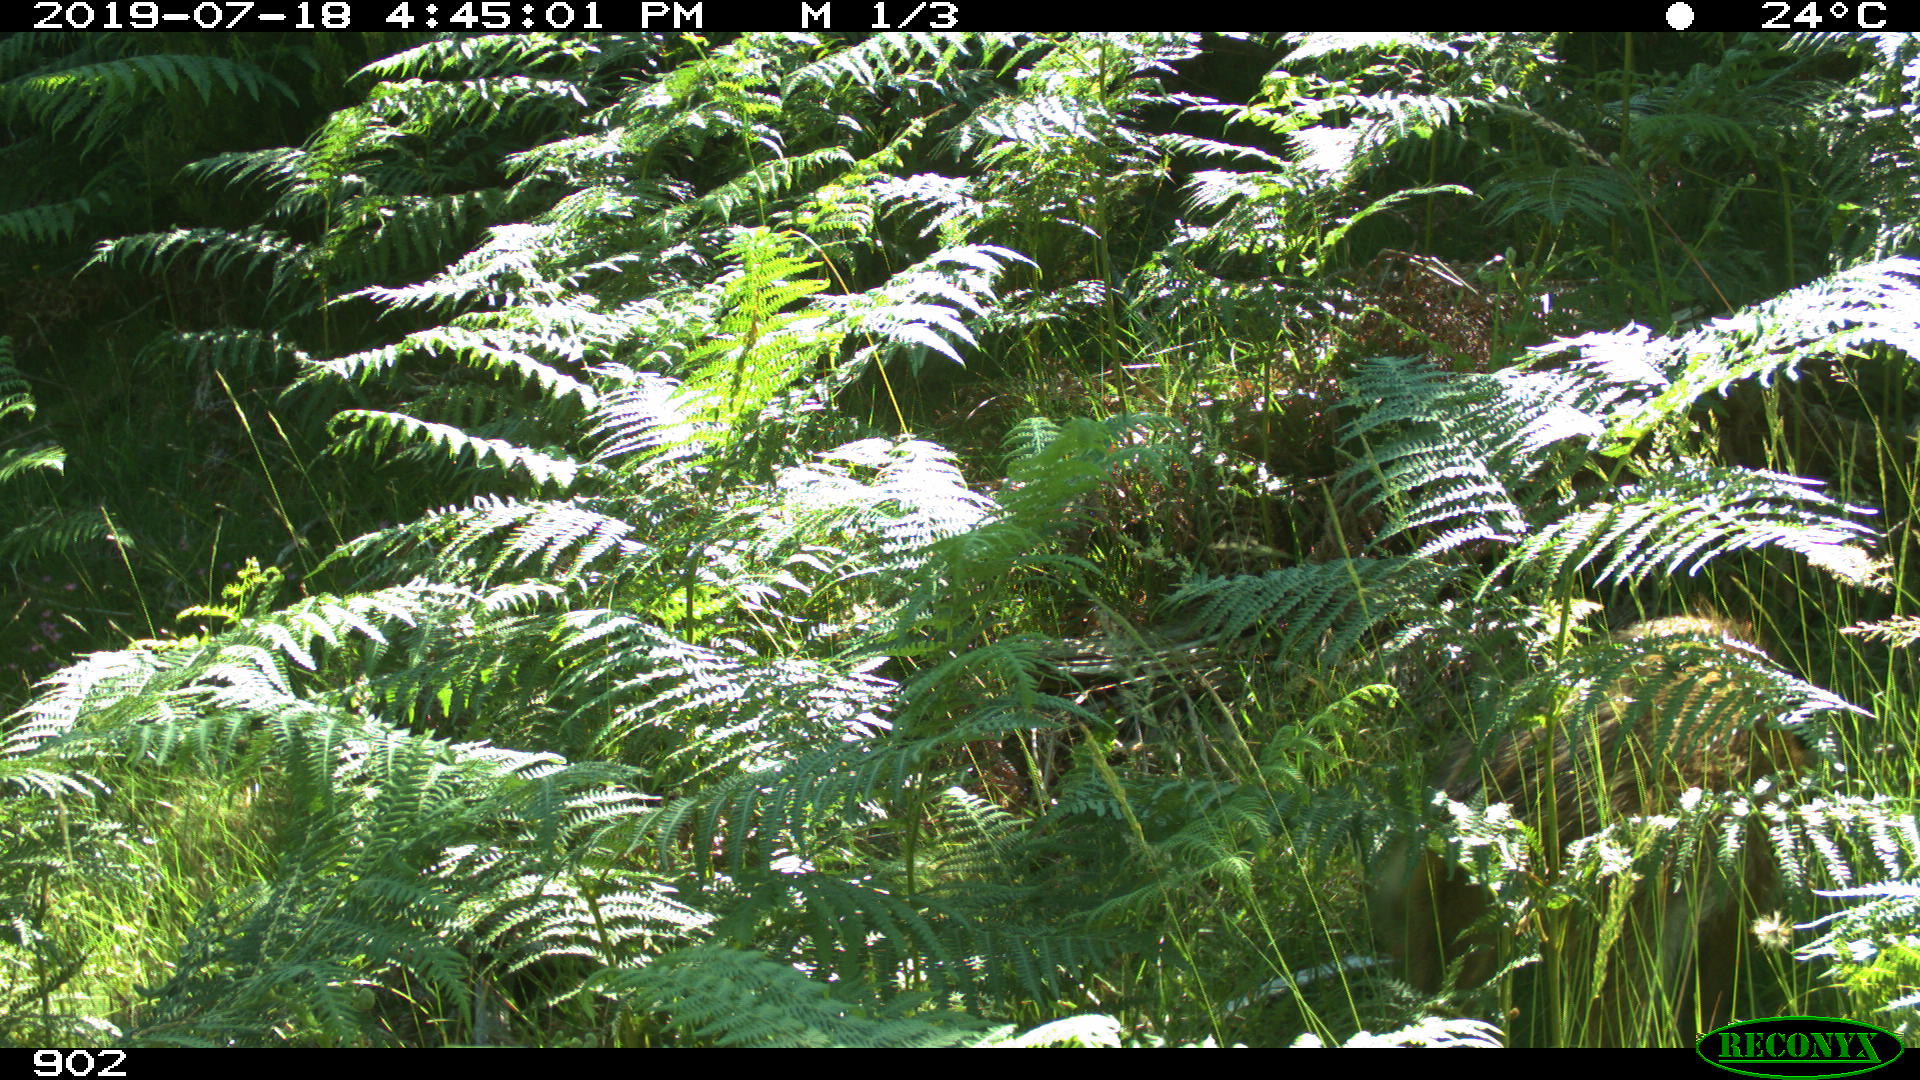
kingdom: Animalia
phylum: Chordata
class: Mammalia
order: Artiodactyla
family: Suidae
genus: Sus
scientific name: Sus scrofa
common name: Wild boar
